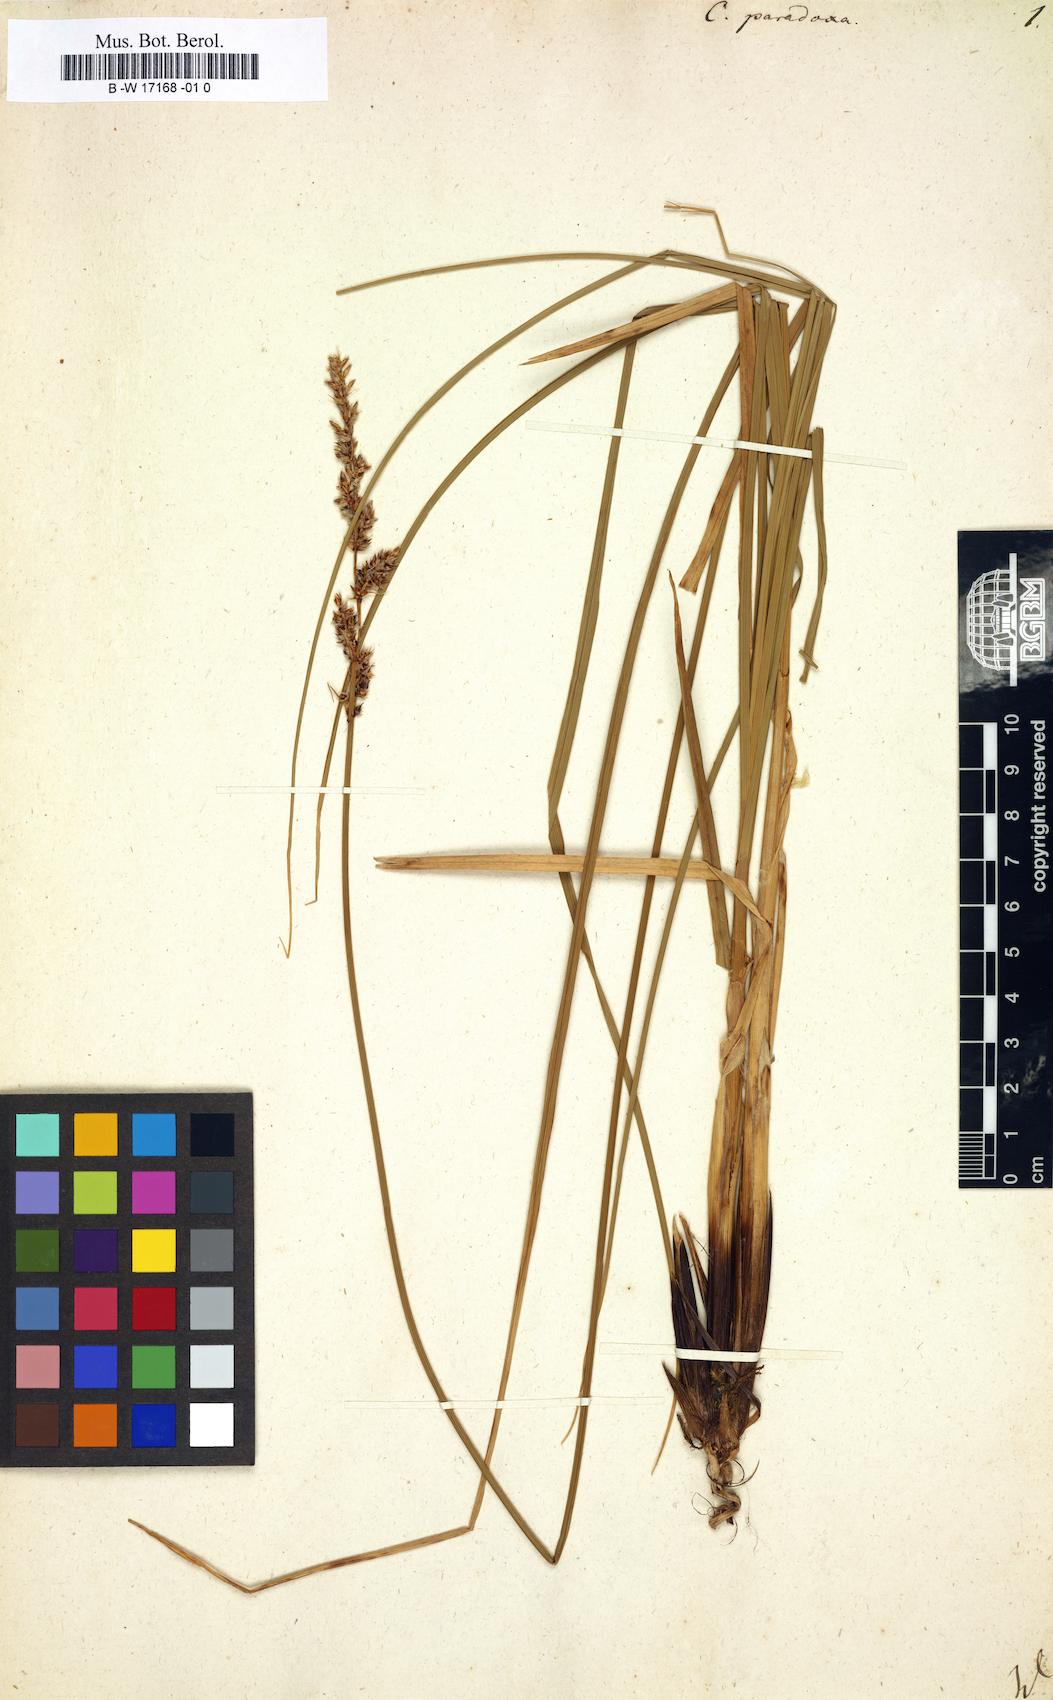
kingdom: Plantae
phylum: Tracheophyta
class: Liliopsida
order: Poales
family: Cyperaceae
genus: Carex
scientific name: Carex
